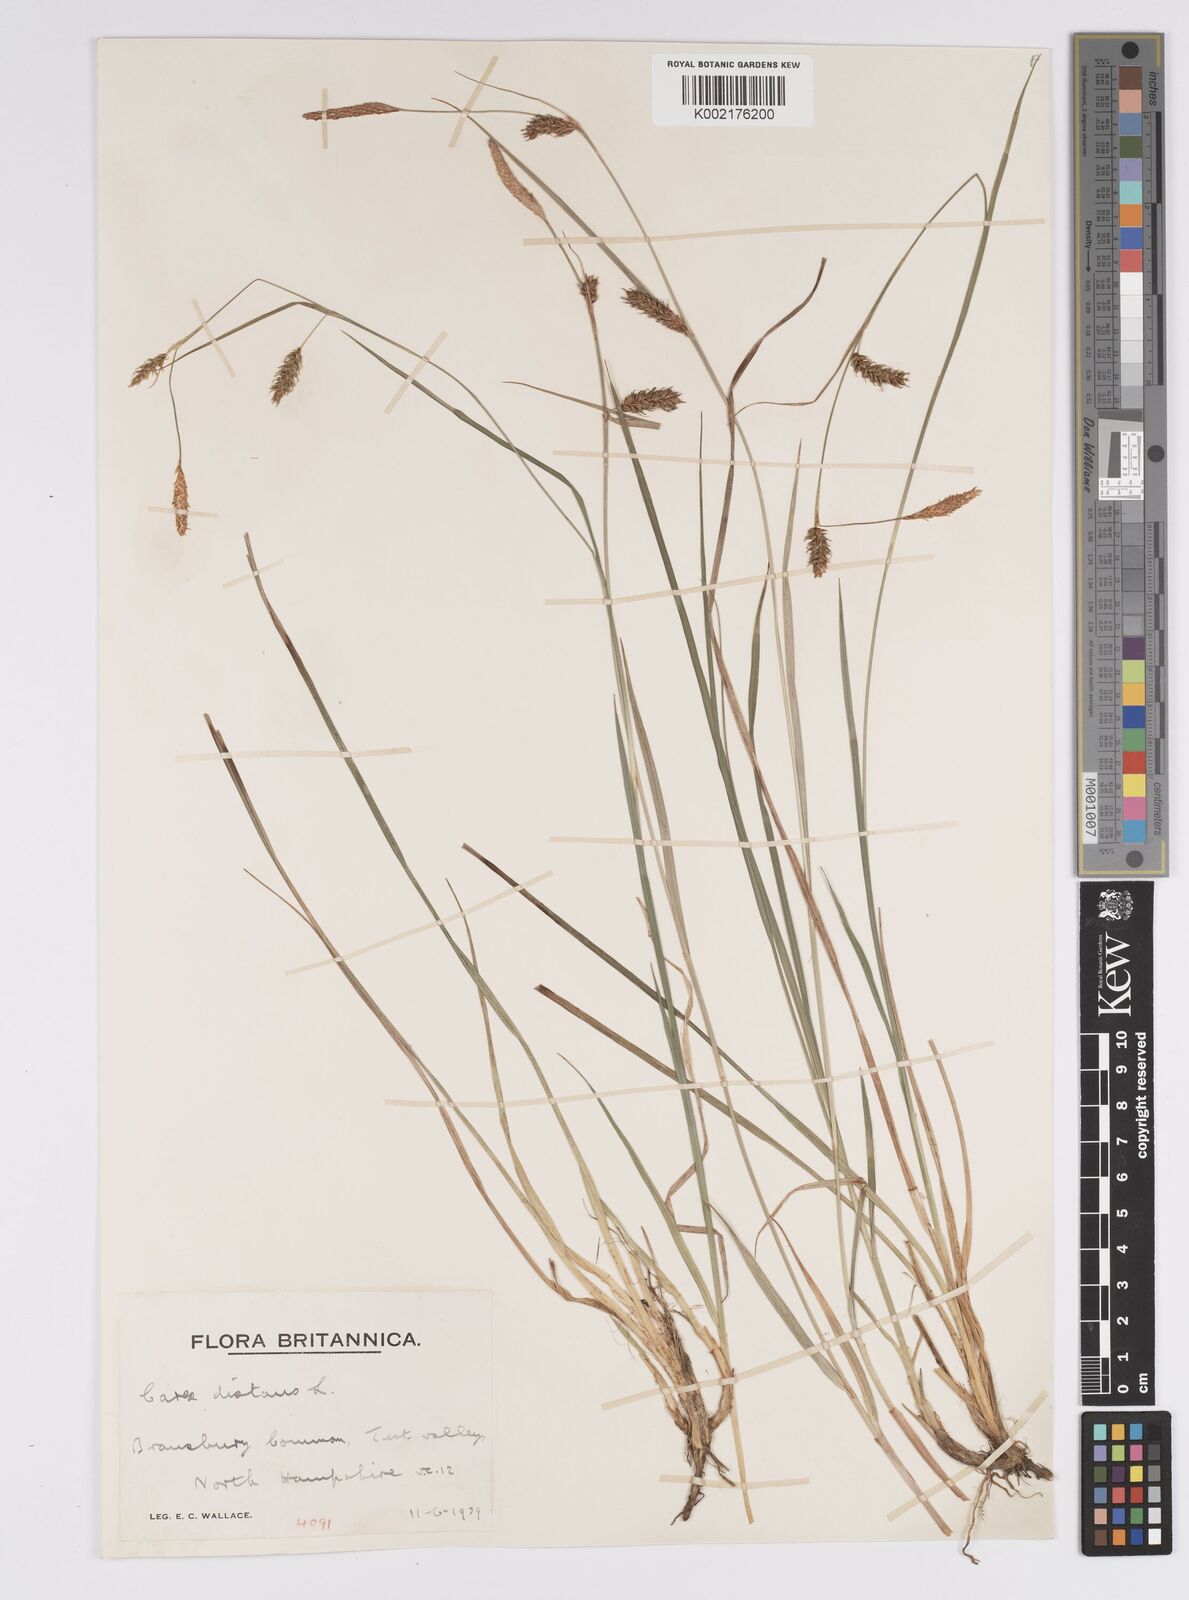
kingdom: Plantae
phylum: Tracheophyta
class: Liliopsida
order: Poales
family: Cyperaceae
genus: Carex
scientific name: Carex distans
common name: Distant sedge
